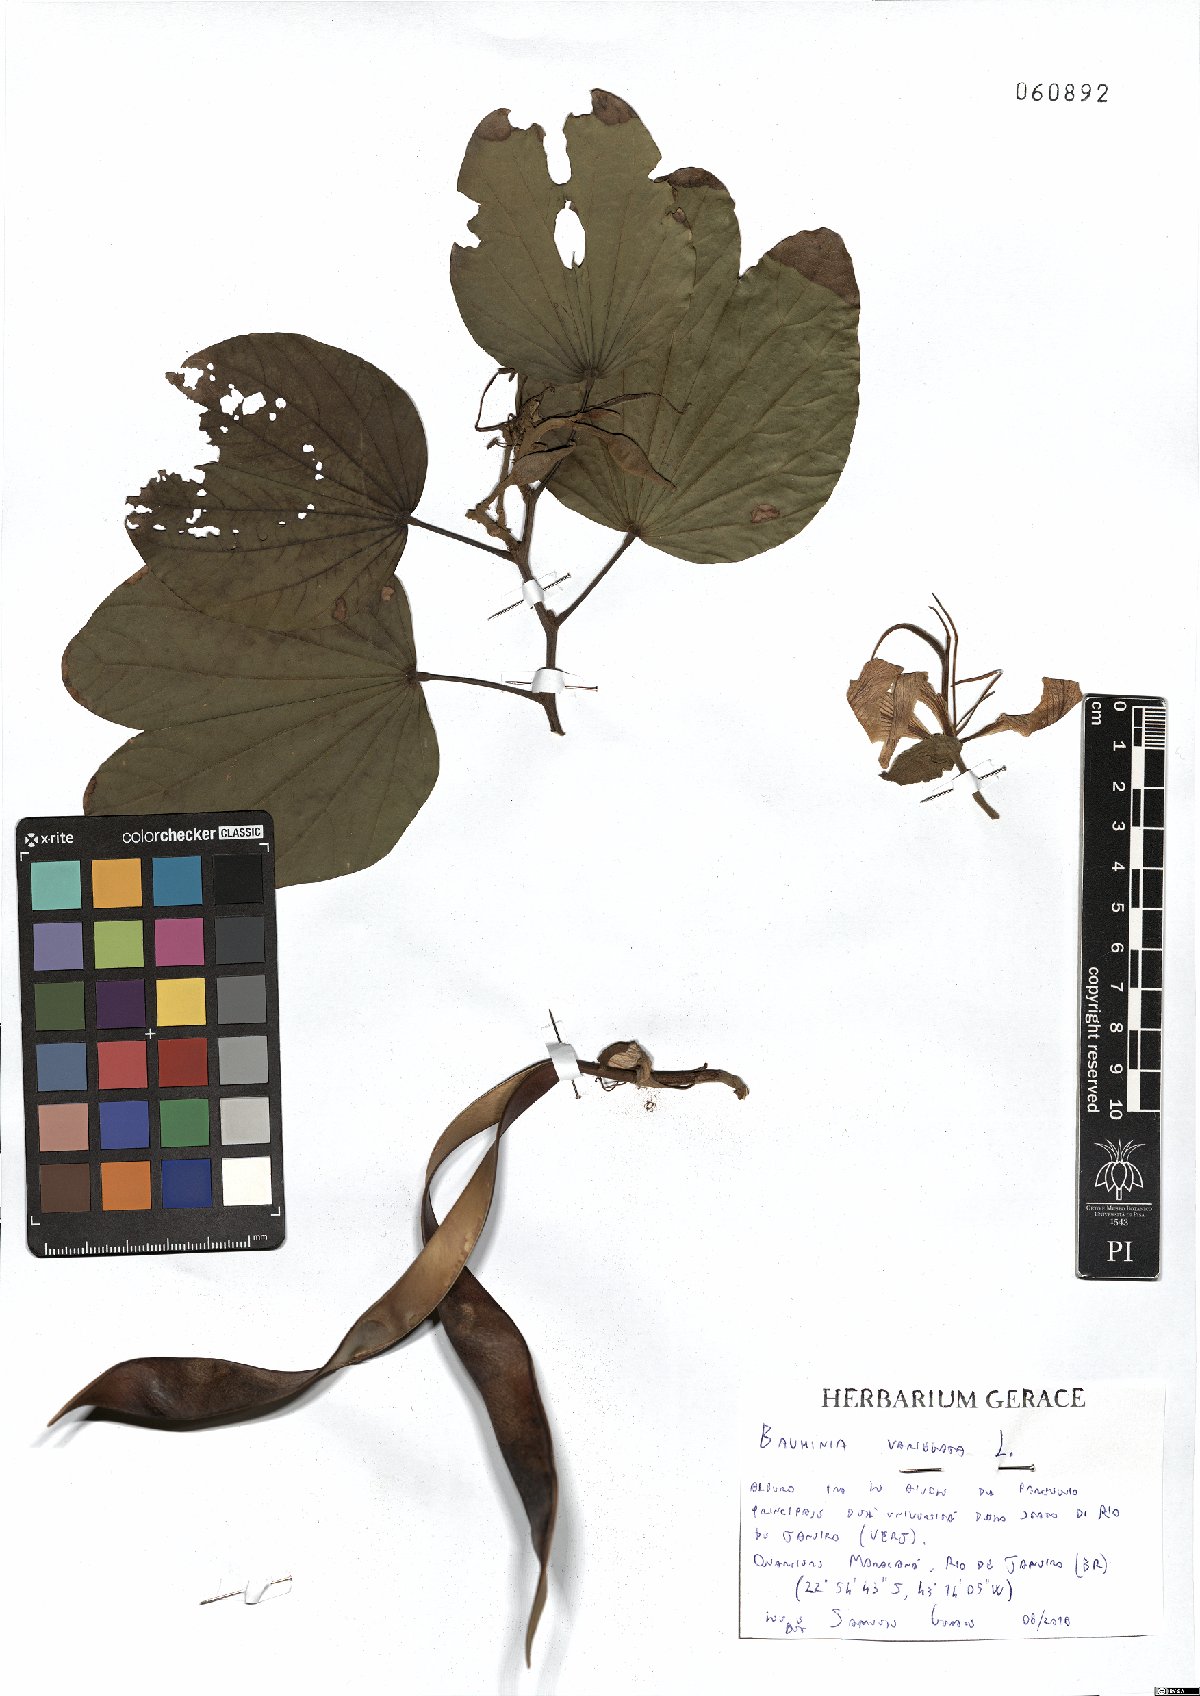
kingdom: Plantae
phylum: Tracheophyta
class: Magnoliopsida
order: Fabales
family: Fabaceae
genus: Bauhinia
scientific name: Bauhinia variegata
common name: Mountain ebony
